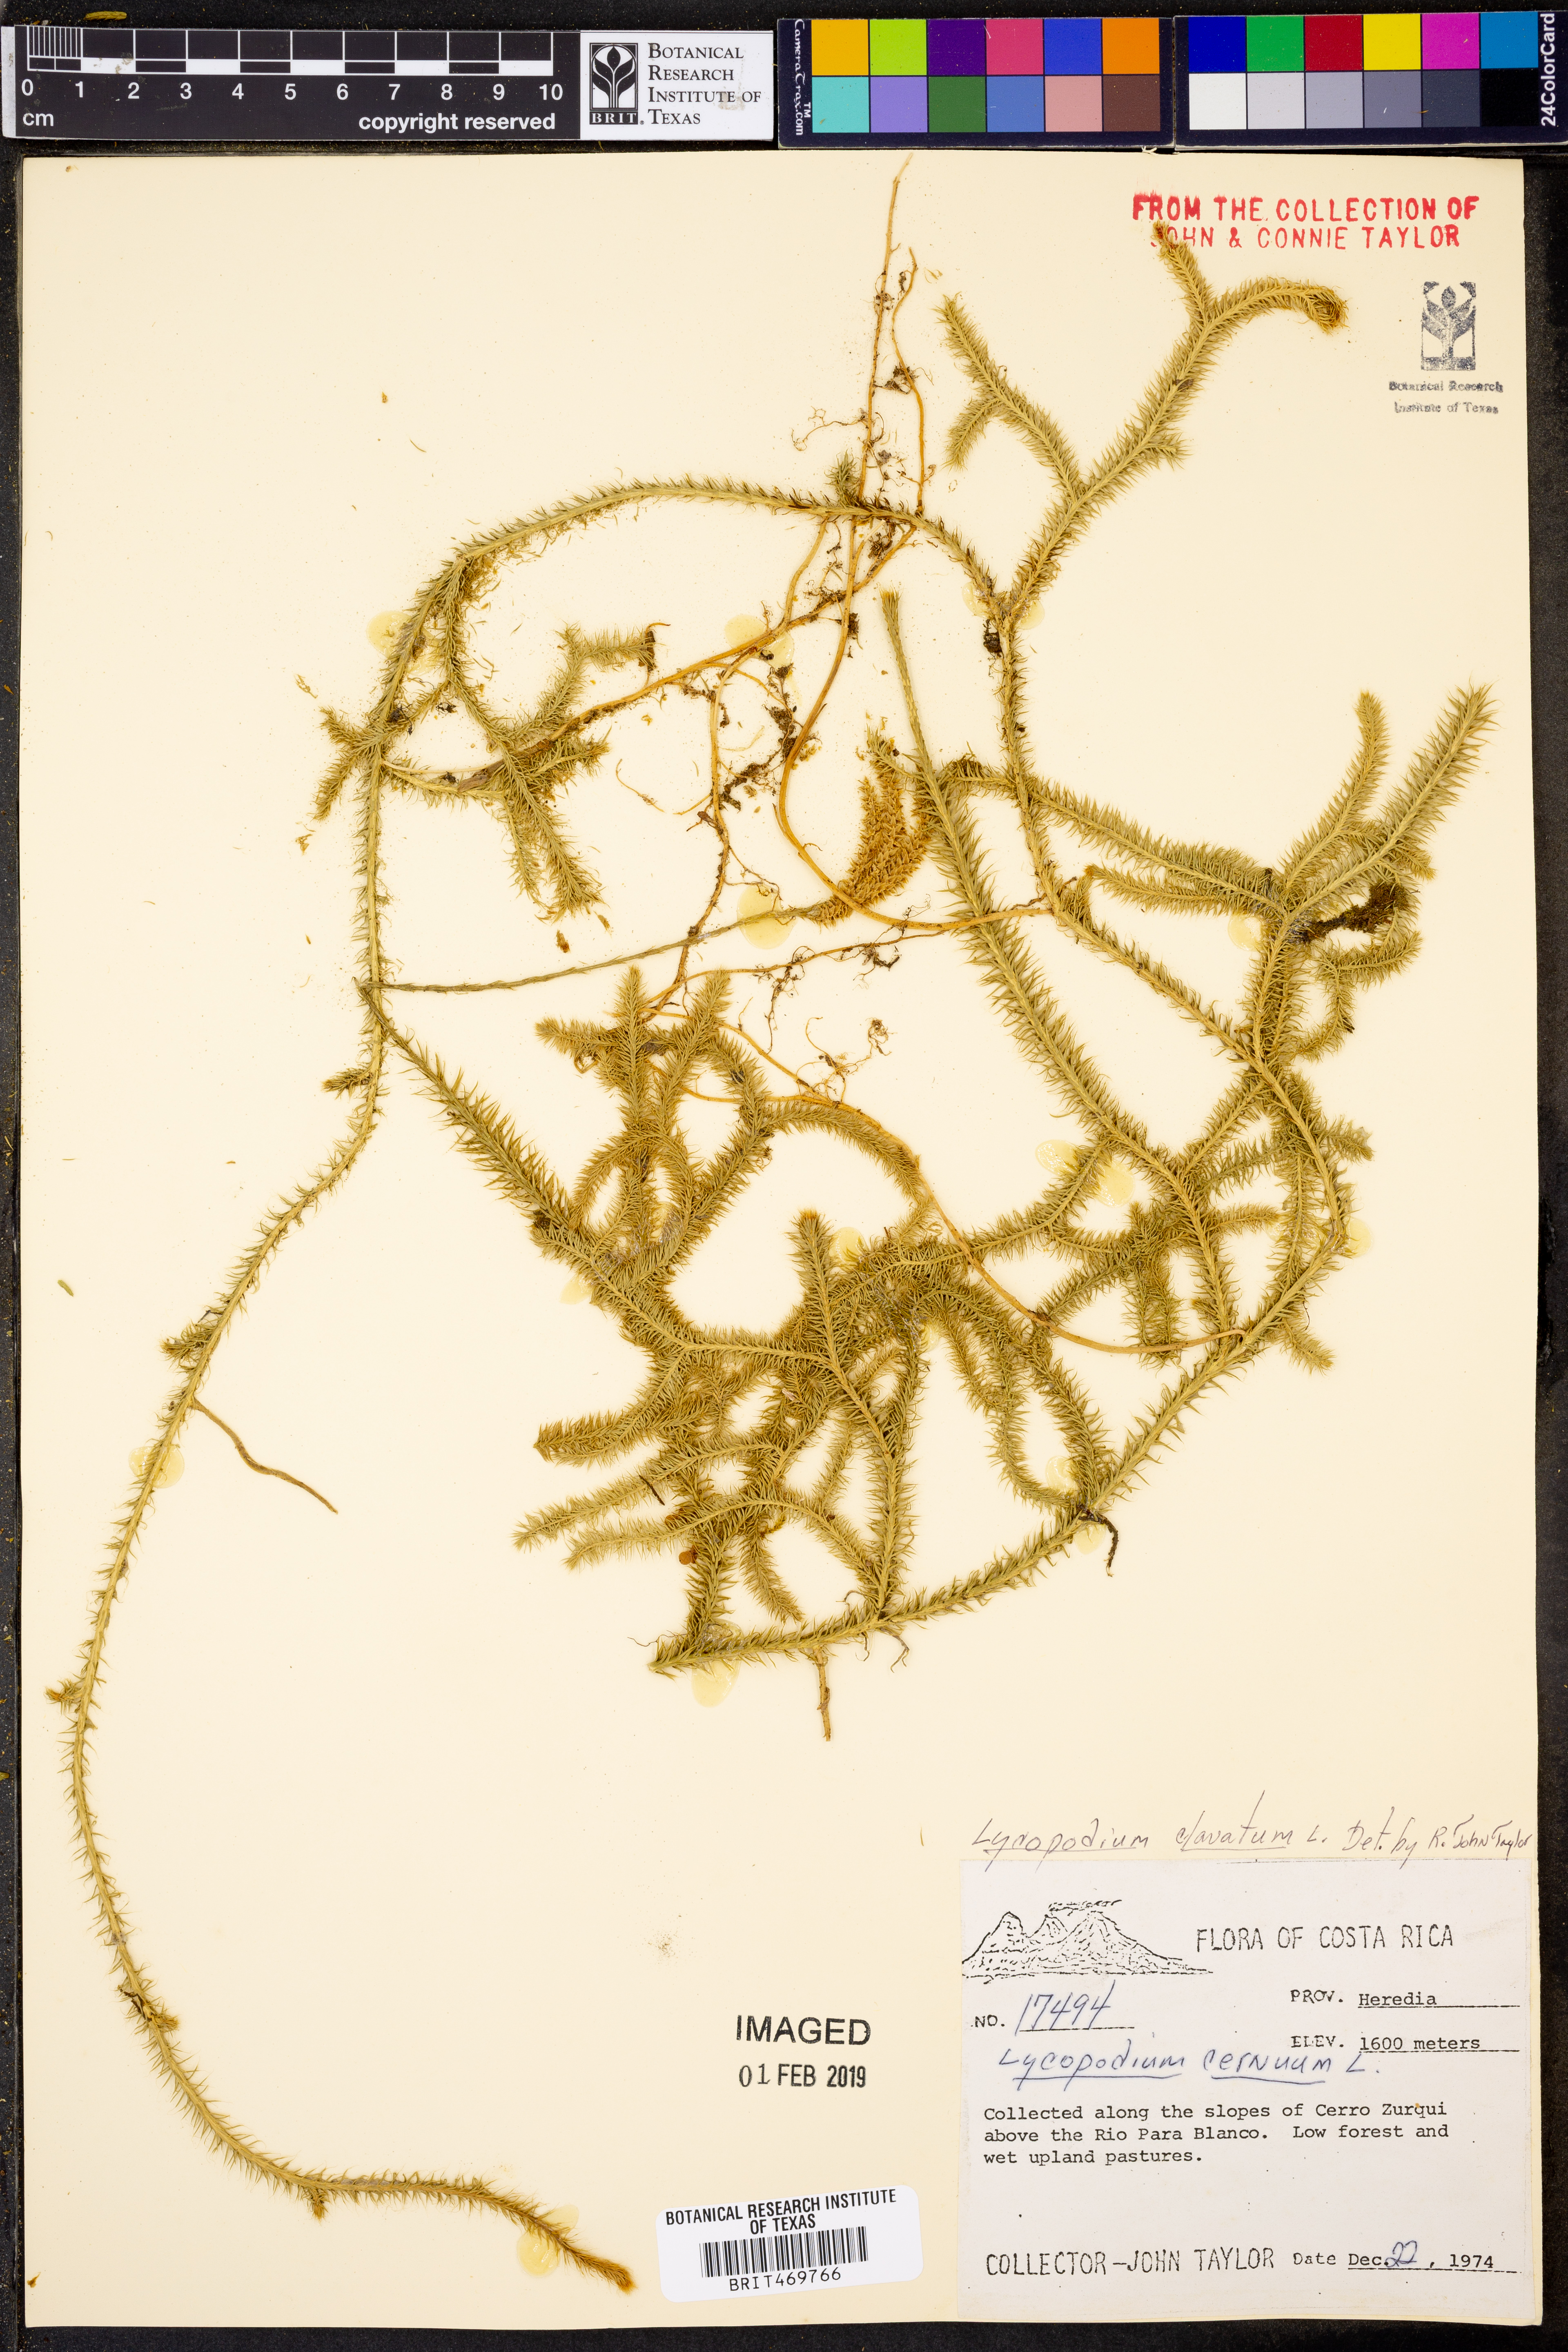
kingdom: Plantae
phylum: Tracheophyta
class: Lycopodiopsida
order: Lycopodiales
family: Lycopodiaceae
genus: Lycopodium
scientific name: Lycopodium clavatum
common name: Stag's-horn clubmoss
